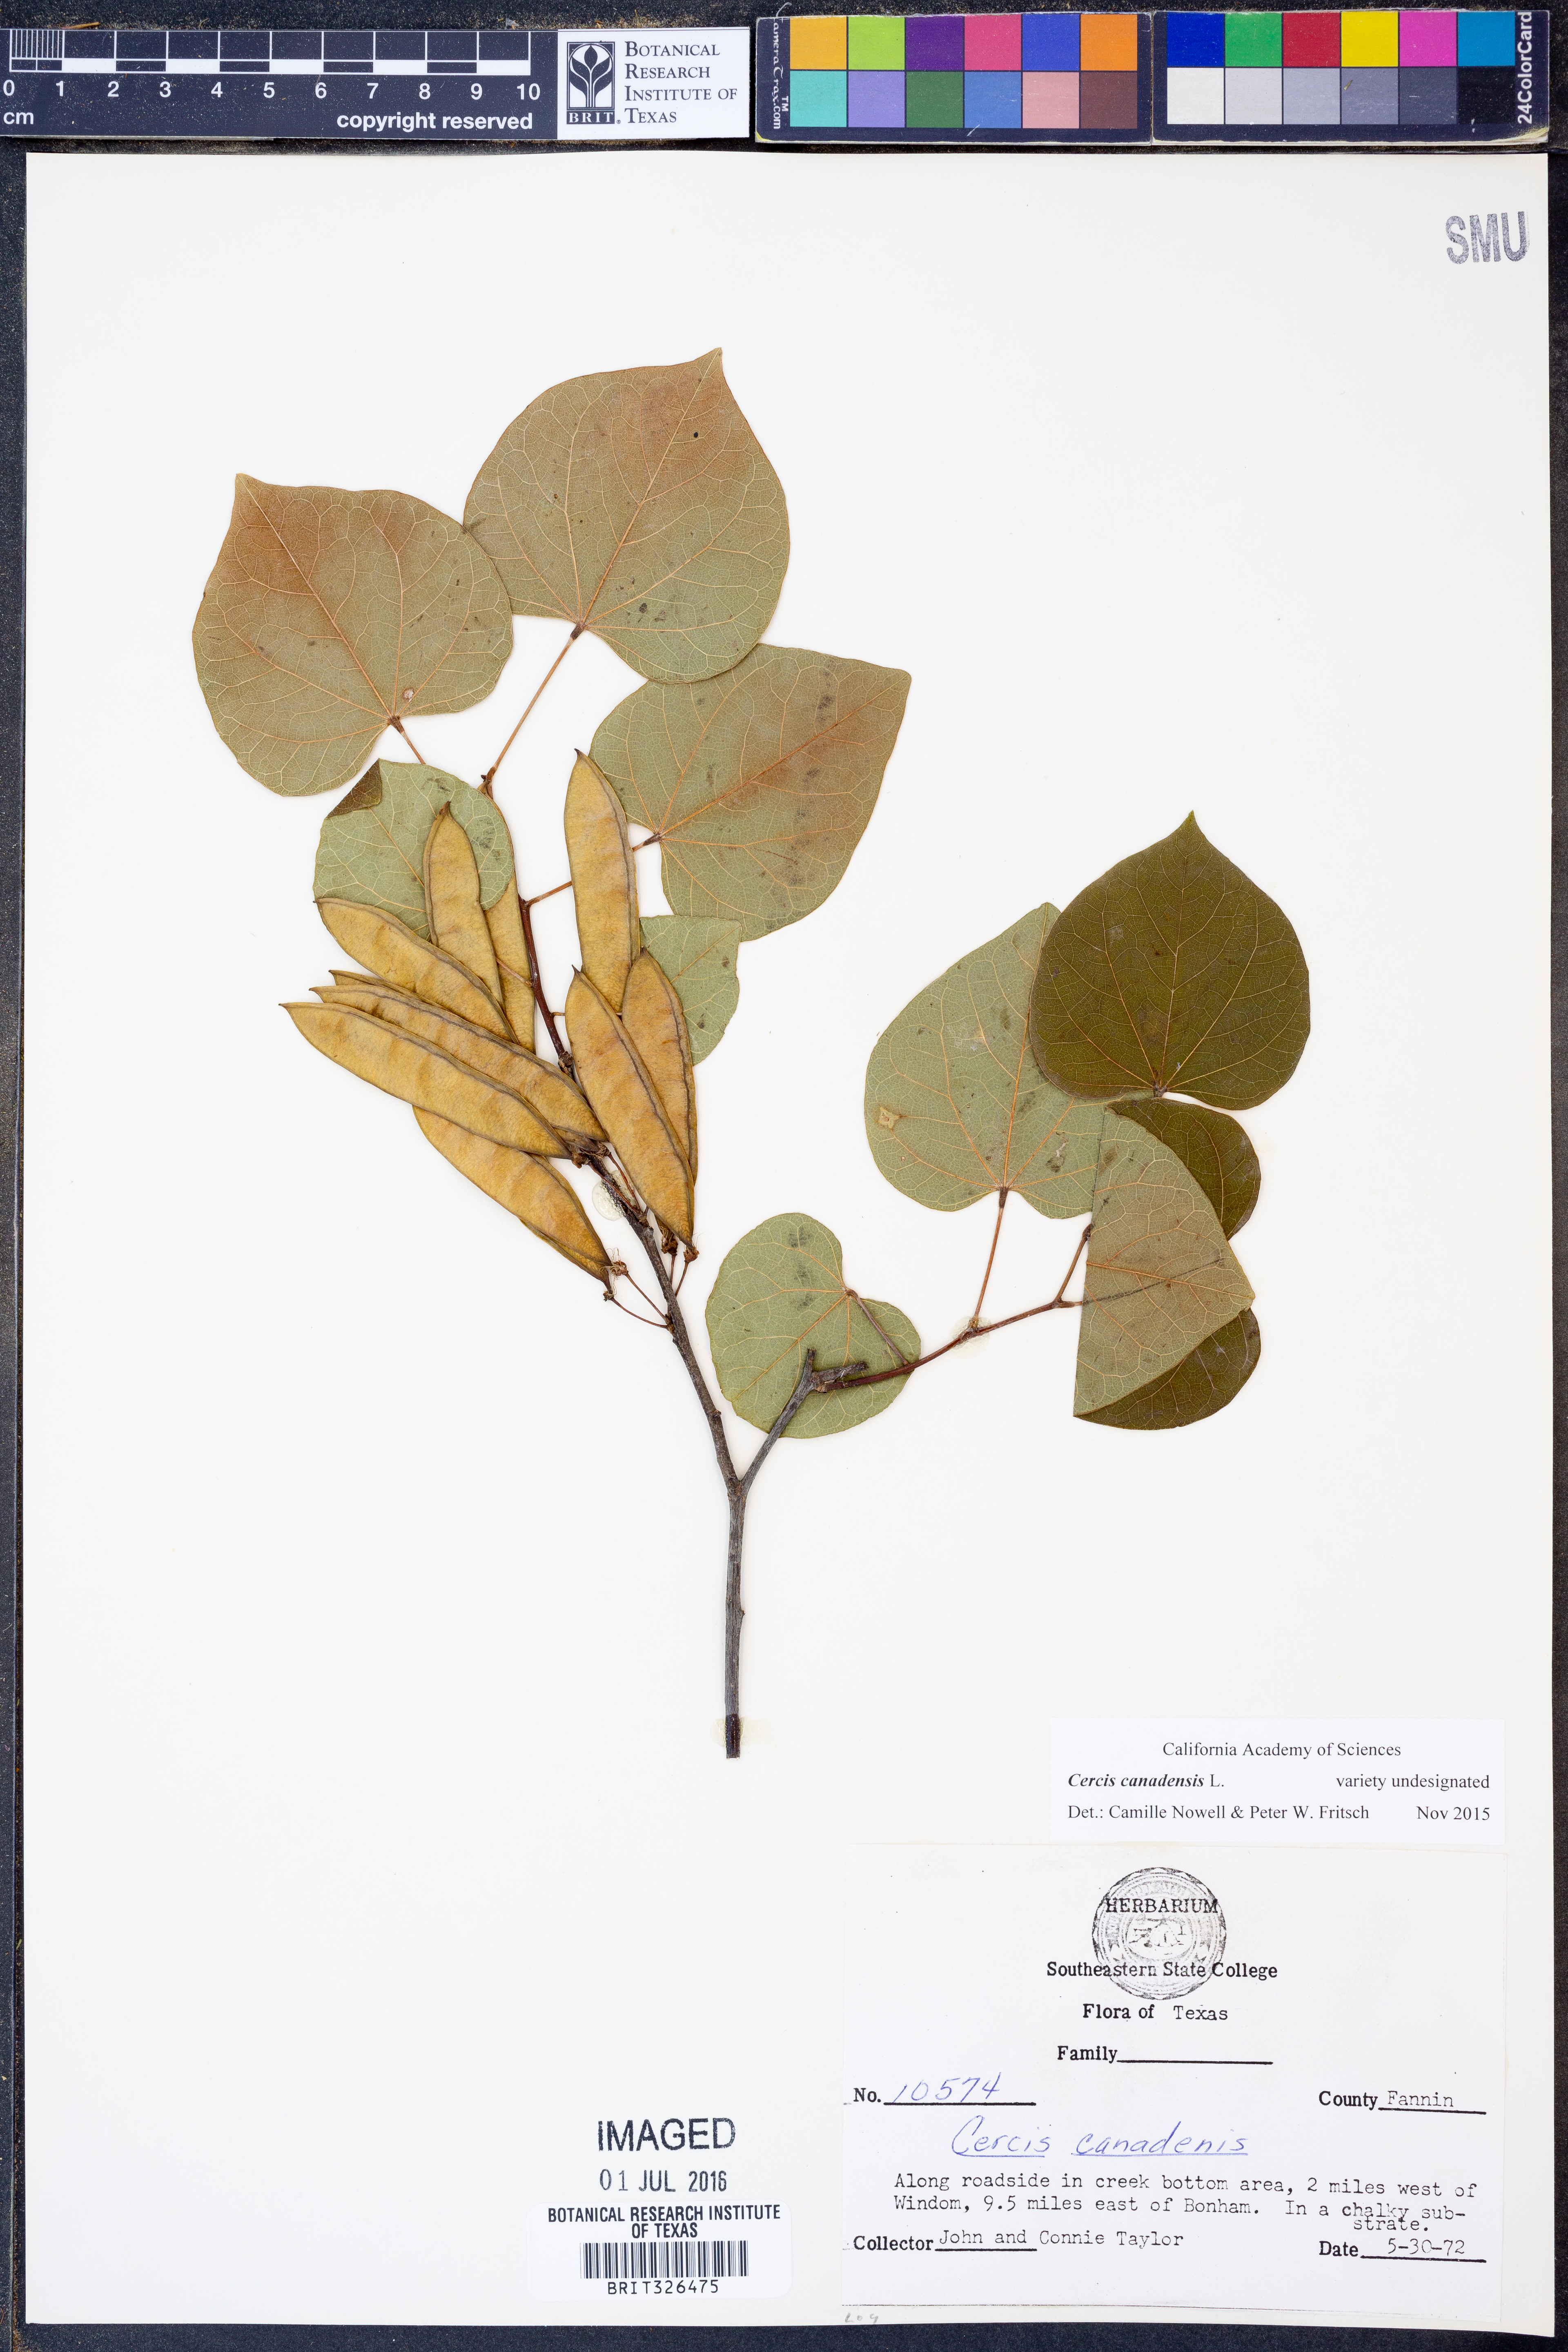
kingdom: Plantae
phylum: Tracheophyta
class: Magnoliopsida
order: Fabales
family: Fabaceae
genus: Cercis
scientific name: Cercis canadensis
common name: Eastern redbud
